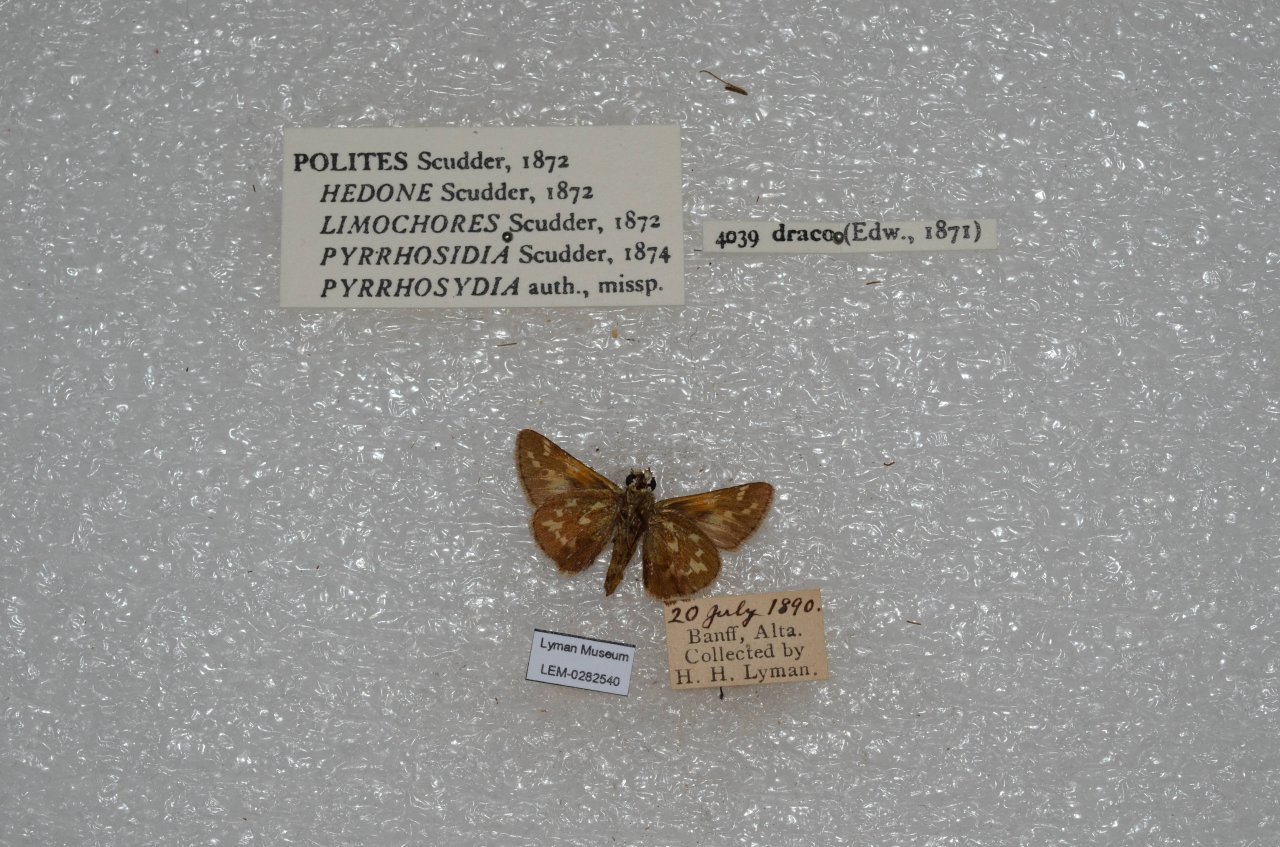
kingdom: Animalia
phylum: Arthropoda
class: Insecta
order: Lepidoptera
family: Hesperiidae
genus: Polites
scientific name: Polites sabuleti
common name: Draco Skipper
